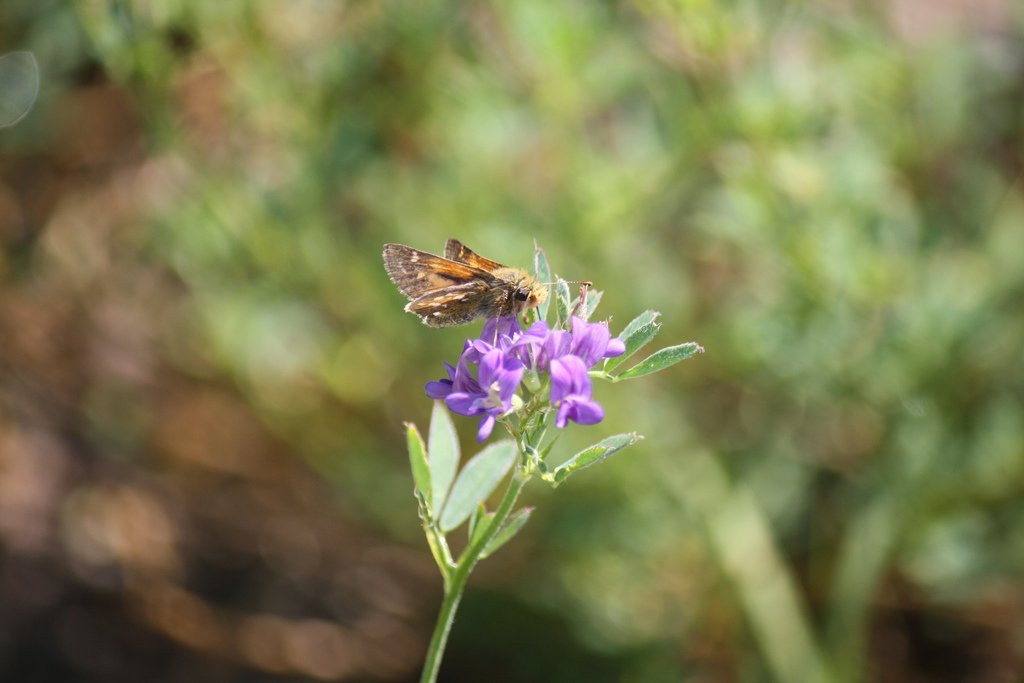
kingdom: Animalia
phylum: Arthropoda
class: Insecta
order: Lepidoptera
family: Hesperiidae
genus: Hesperia
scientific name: Hesperia comma
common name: Common Branded Skipper
